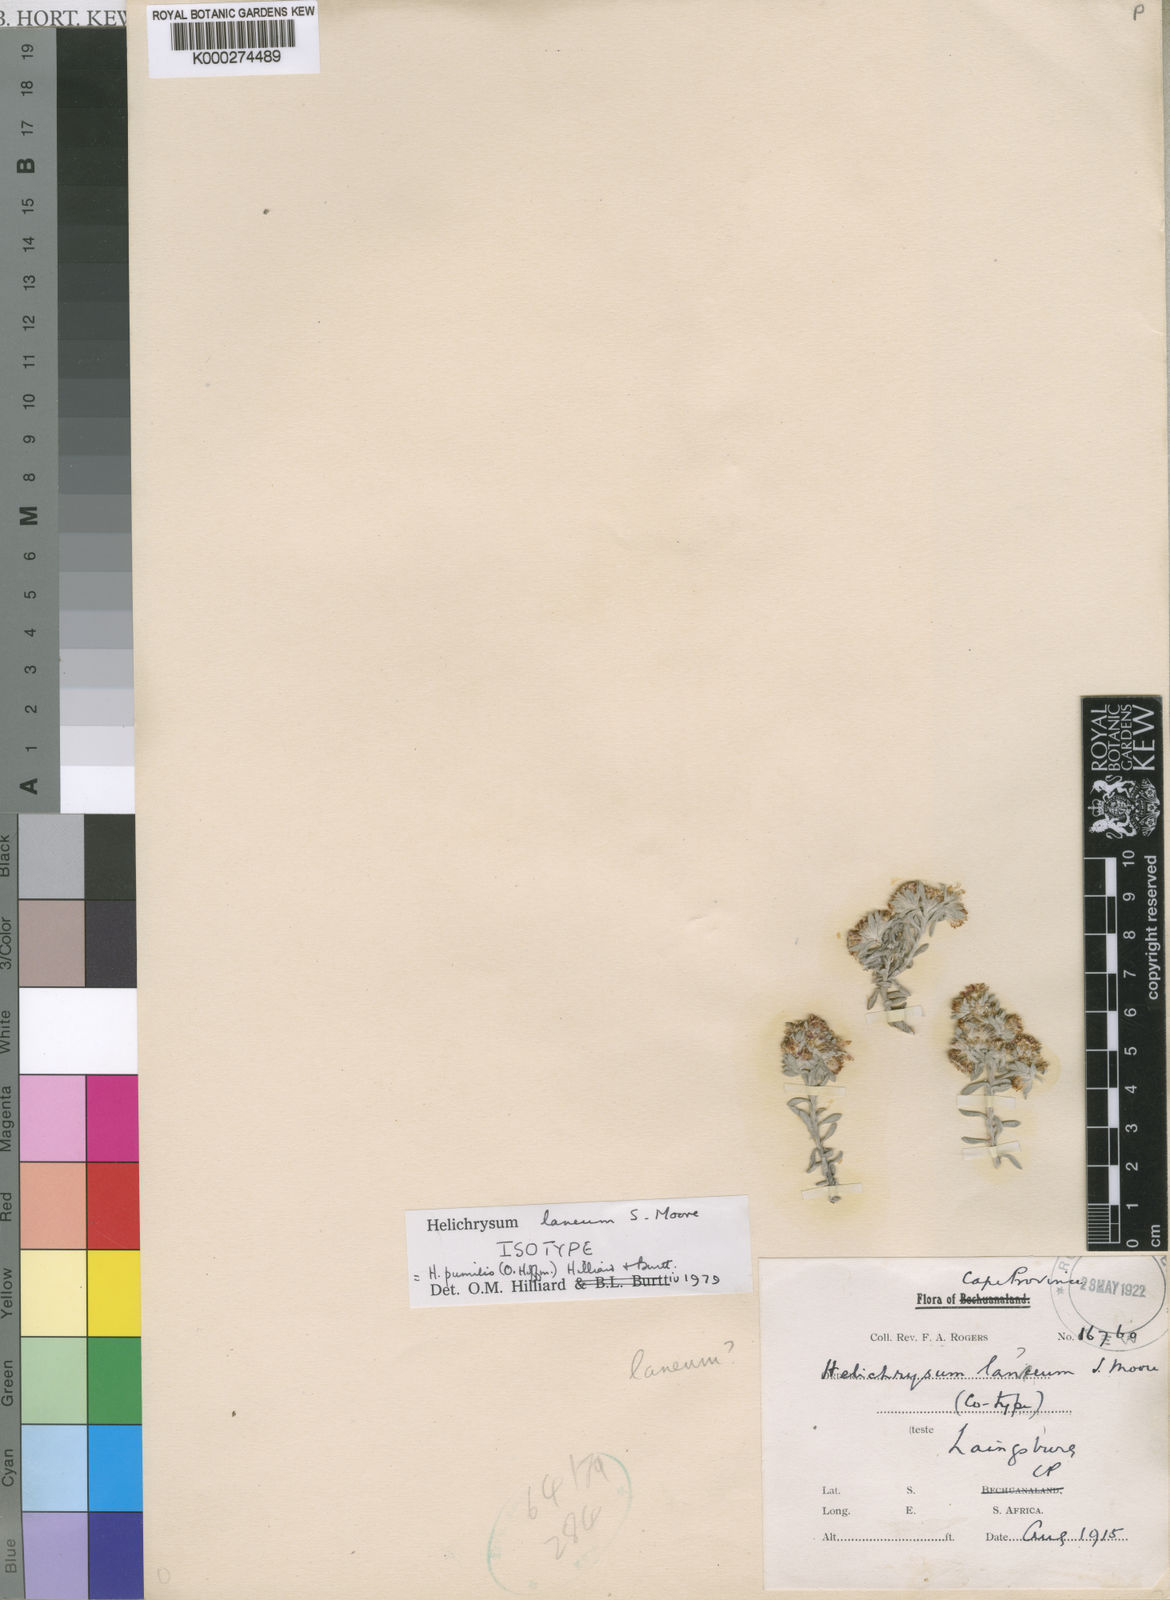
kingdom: Plantae
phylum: Tracheophyta
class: Magnoliopsida
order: Asterales
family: Asteraceae
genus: Helichrysum
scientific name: Helichrysum pumilio
